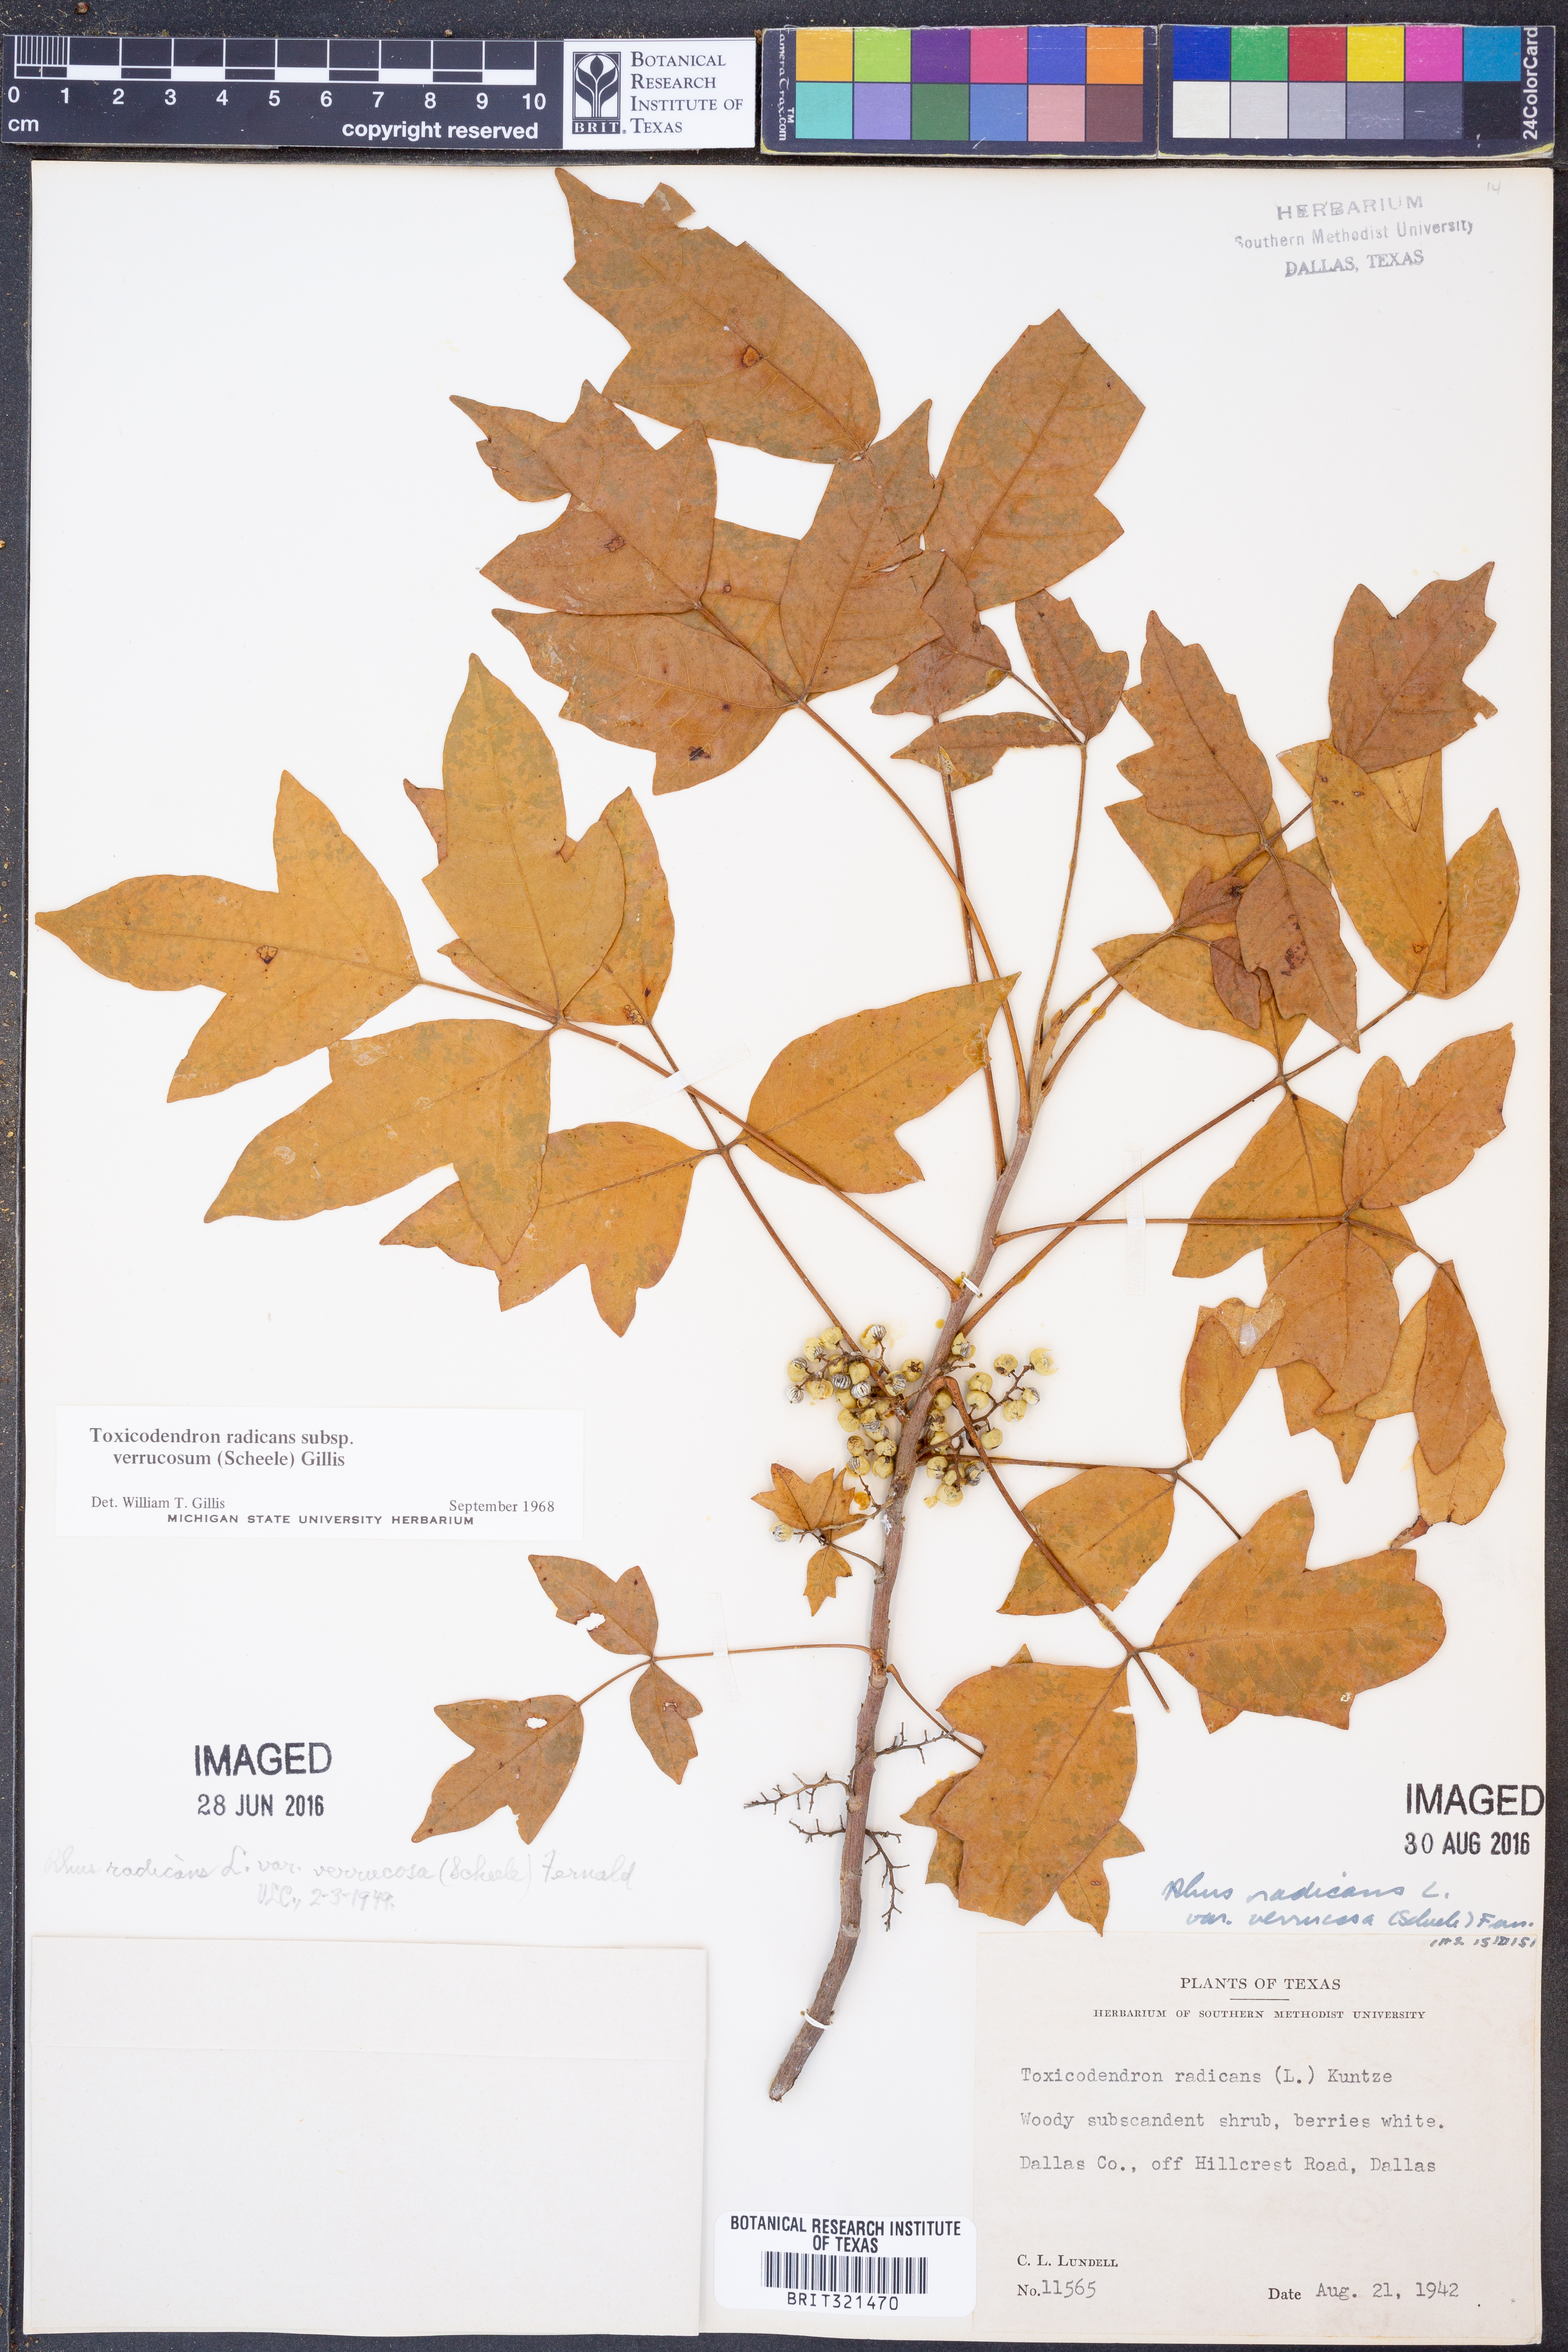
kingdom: Plantae
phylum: Tracheophyta
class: Magnoliopsida
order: Sapindales
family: Anacardiaceae
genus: Toxicodendron
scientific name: Toxicodendron radicans
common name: Poison ivy
